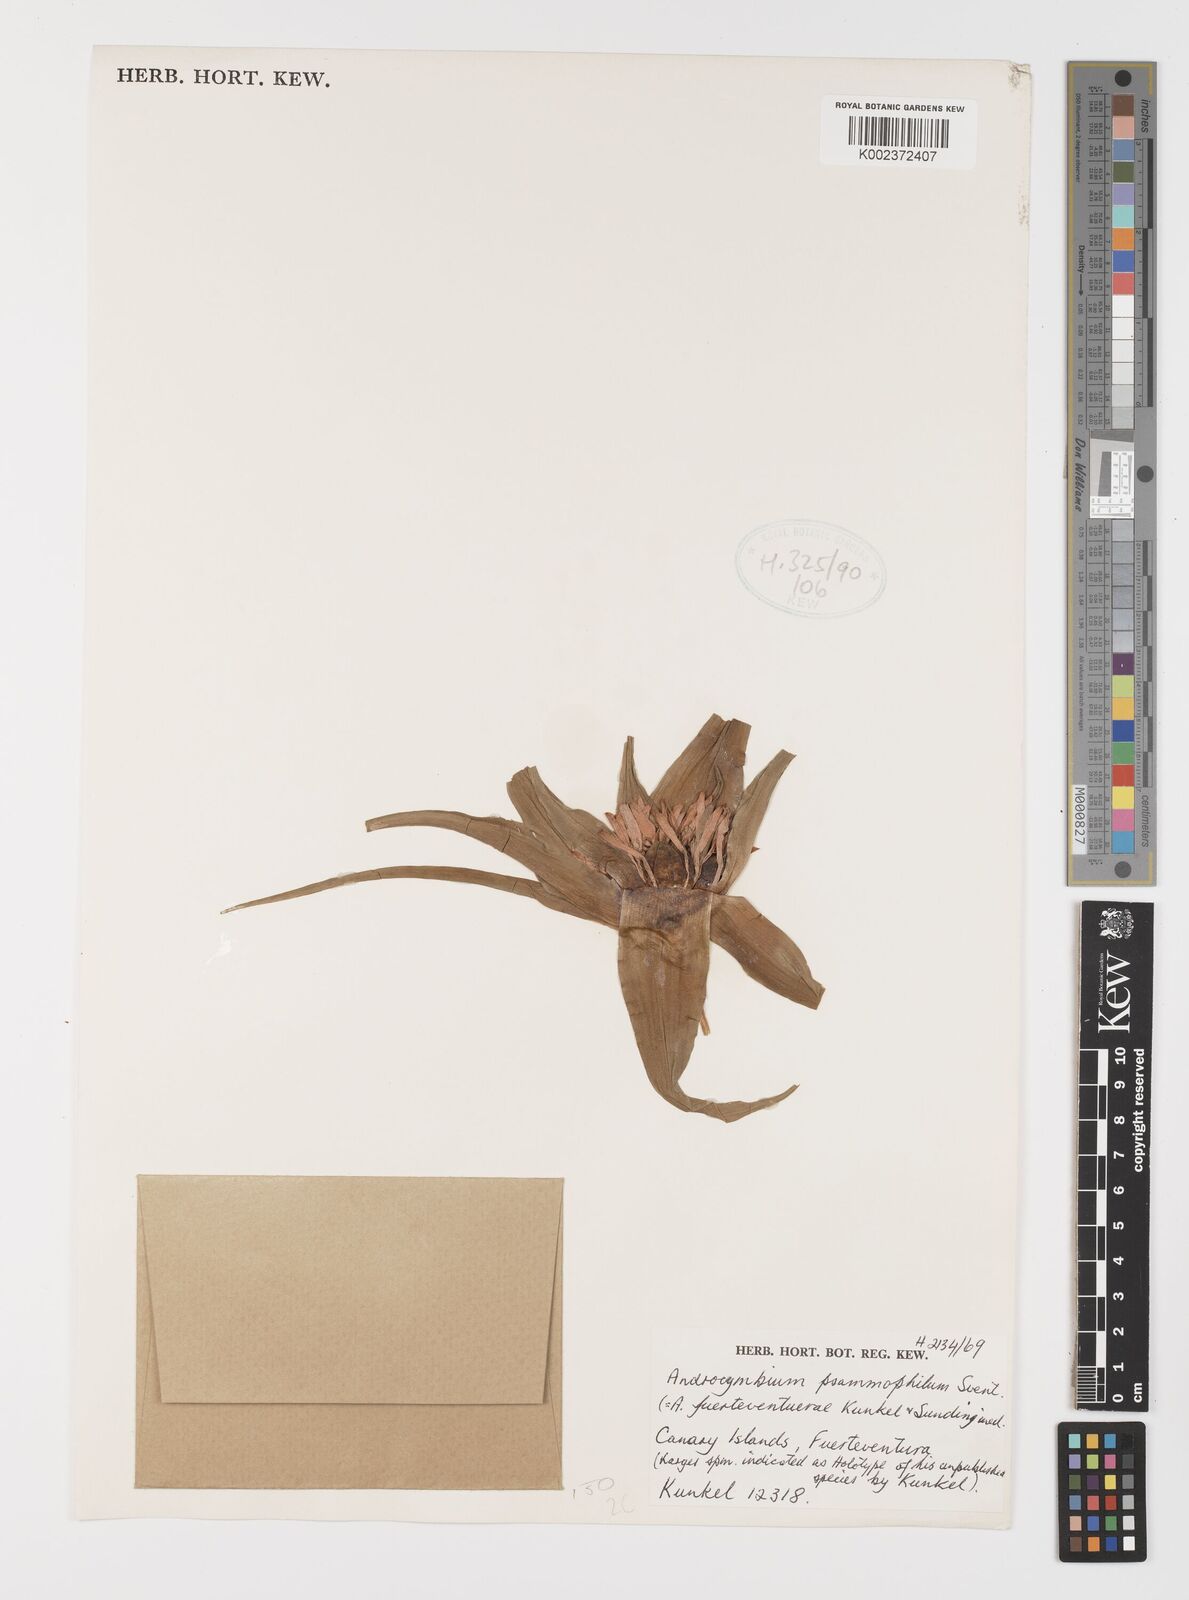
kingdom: Plantae
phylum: Tracheophyta
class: Liliopsida
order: Liliales
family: Colchicaceae
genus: Colchicum
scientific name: Colchicum psammophilum
